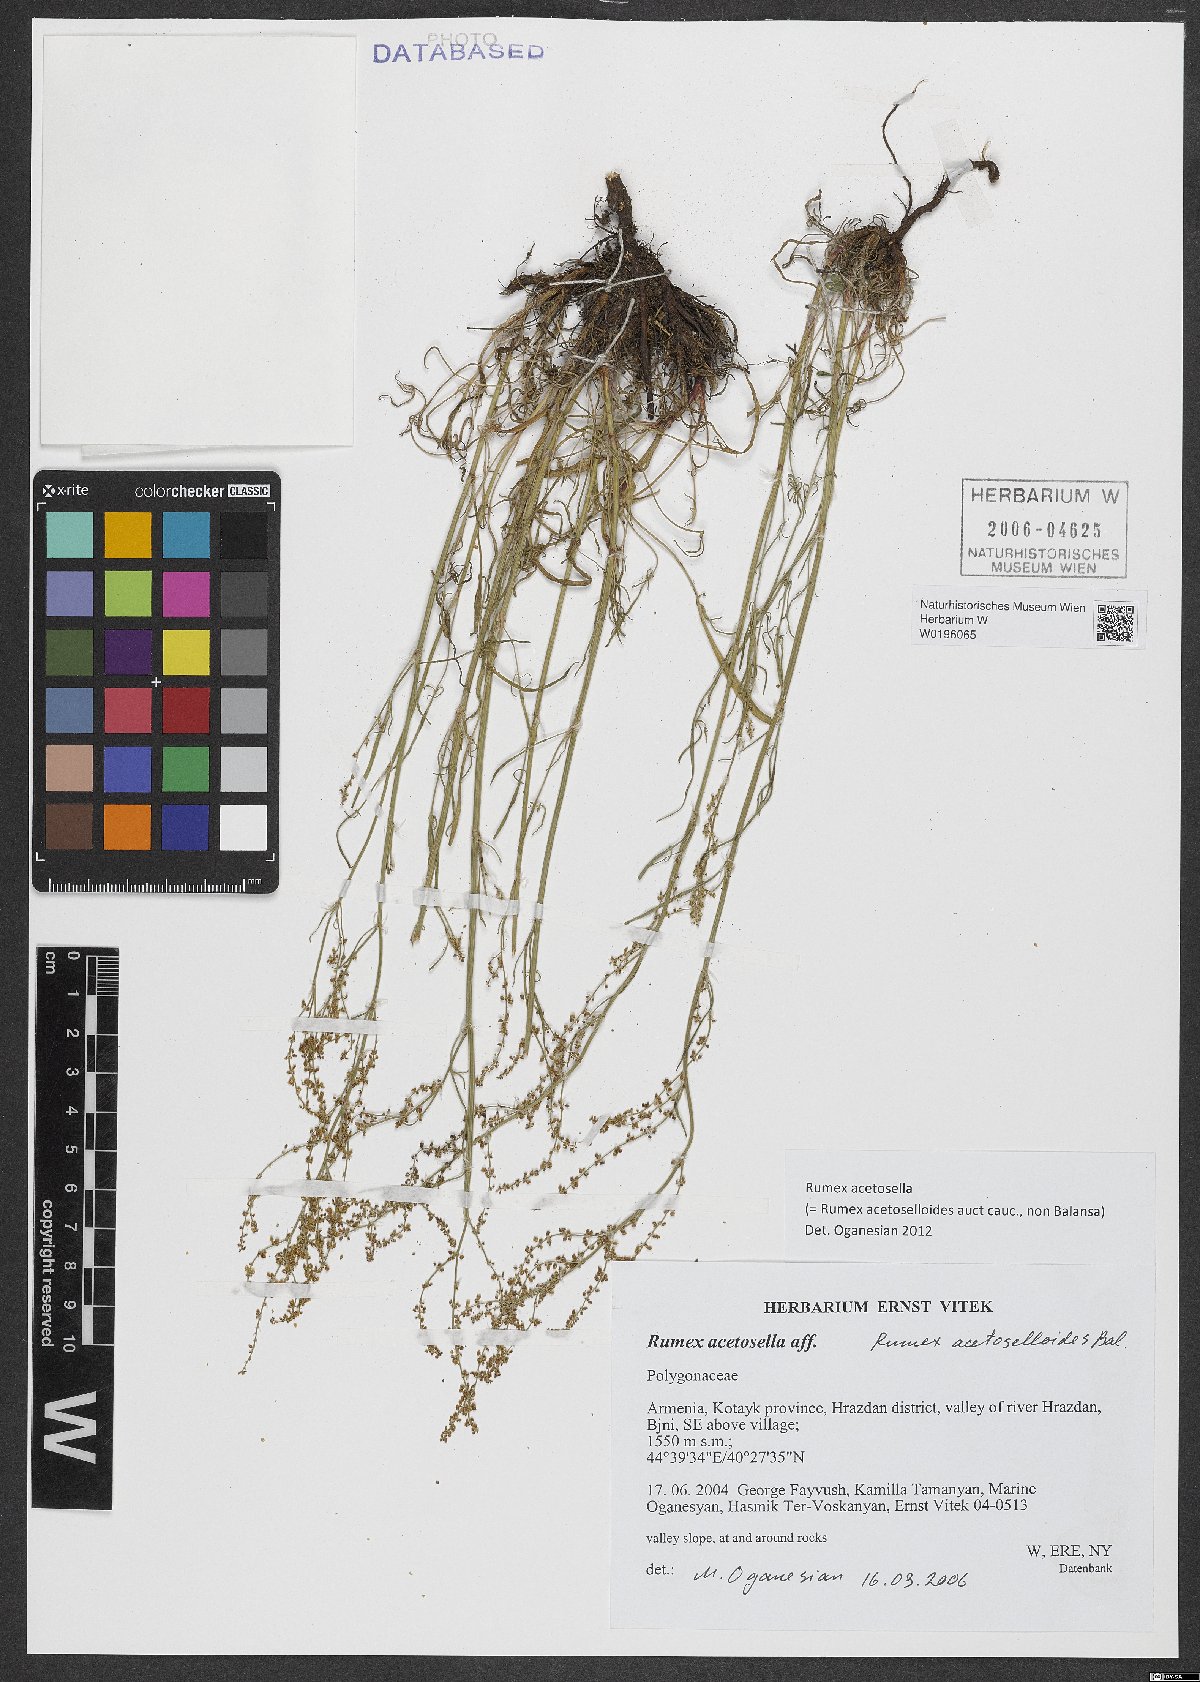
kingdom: Plantae
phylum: Tracheophyta
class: Magnoliopsida
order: Caryophyllales
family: Polygonaceae
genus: Rumex
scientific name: Rumex acetosella
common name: Common sheep sorrel
